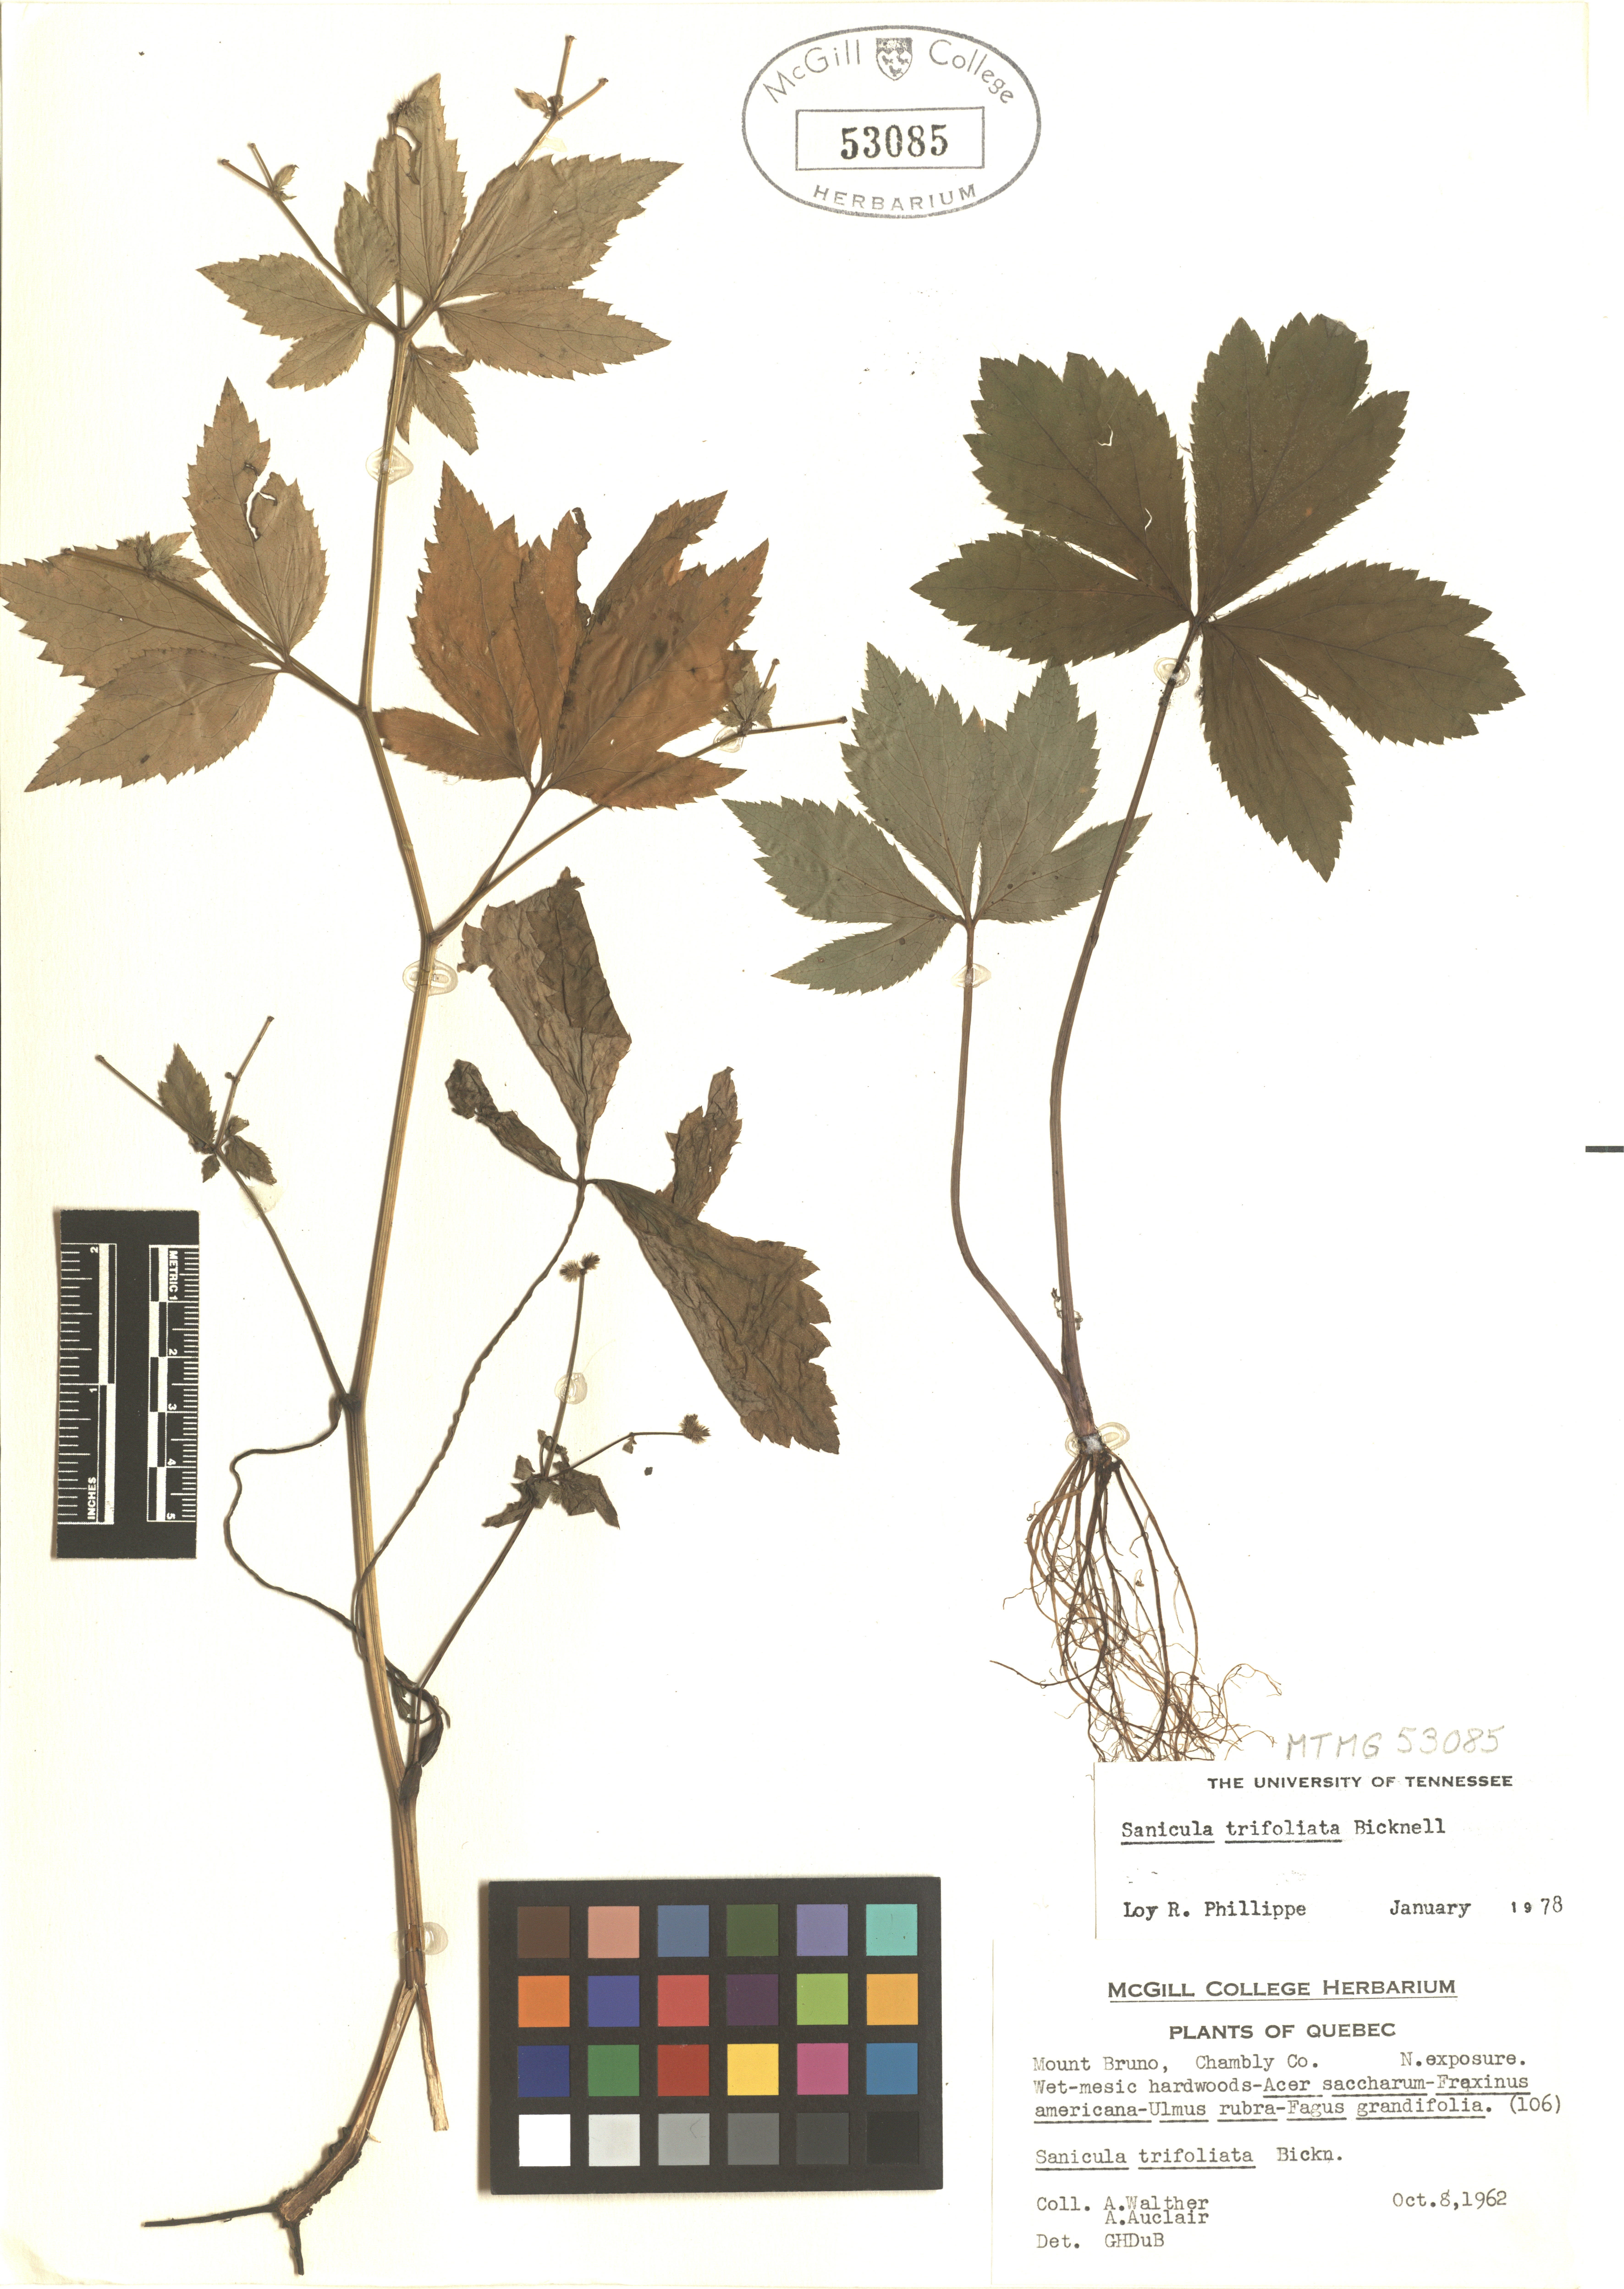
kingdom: Plantae
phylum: Tracheophyta
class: Magnoliopsida
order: Apiales
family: Apiaceae
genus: Sanicula
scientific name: Sanicula trifoliata
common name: Beaked sanicle
